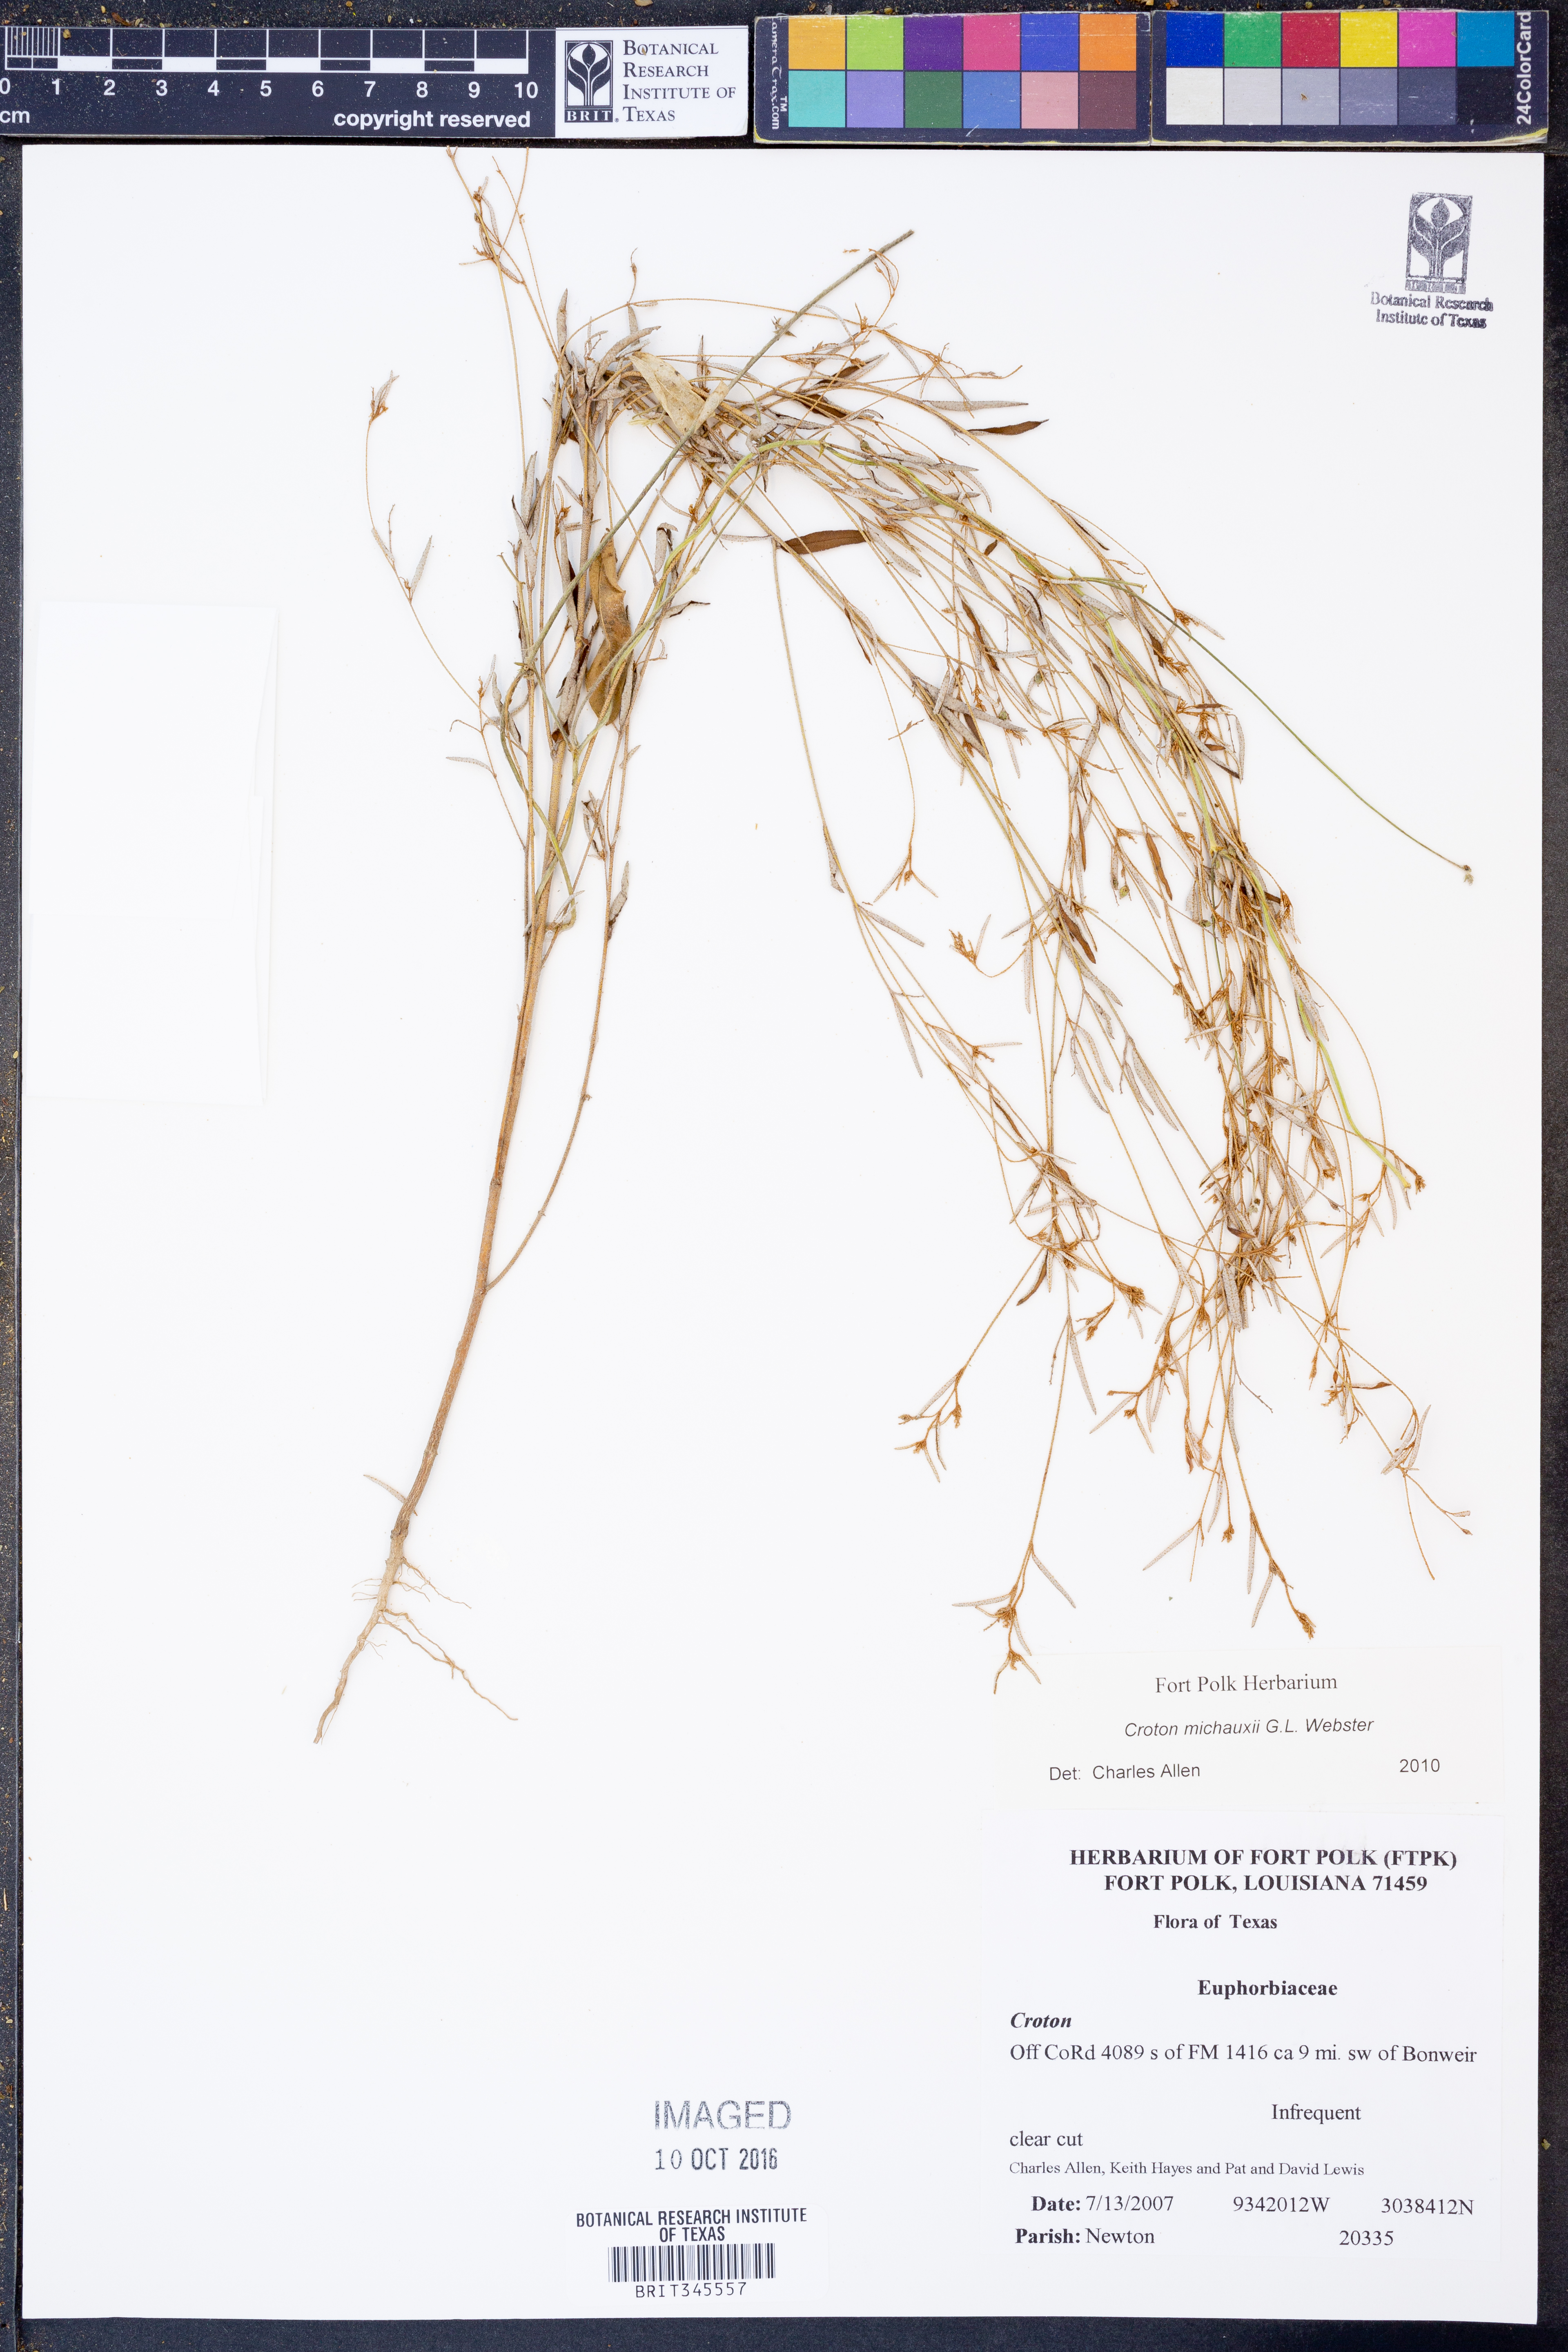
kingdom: Plantae
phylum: Tracheophyta
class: Magnoliopsida
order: Malpighiales
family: Euphorbiaceae
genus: Croton
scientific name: Croton michauxii
